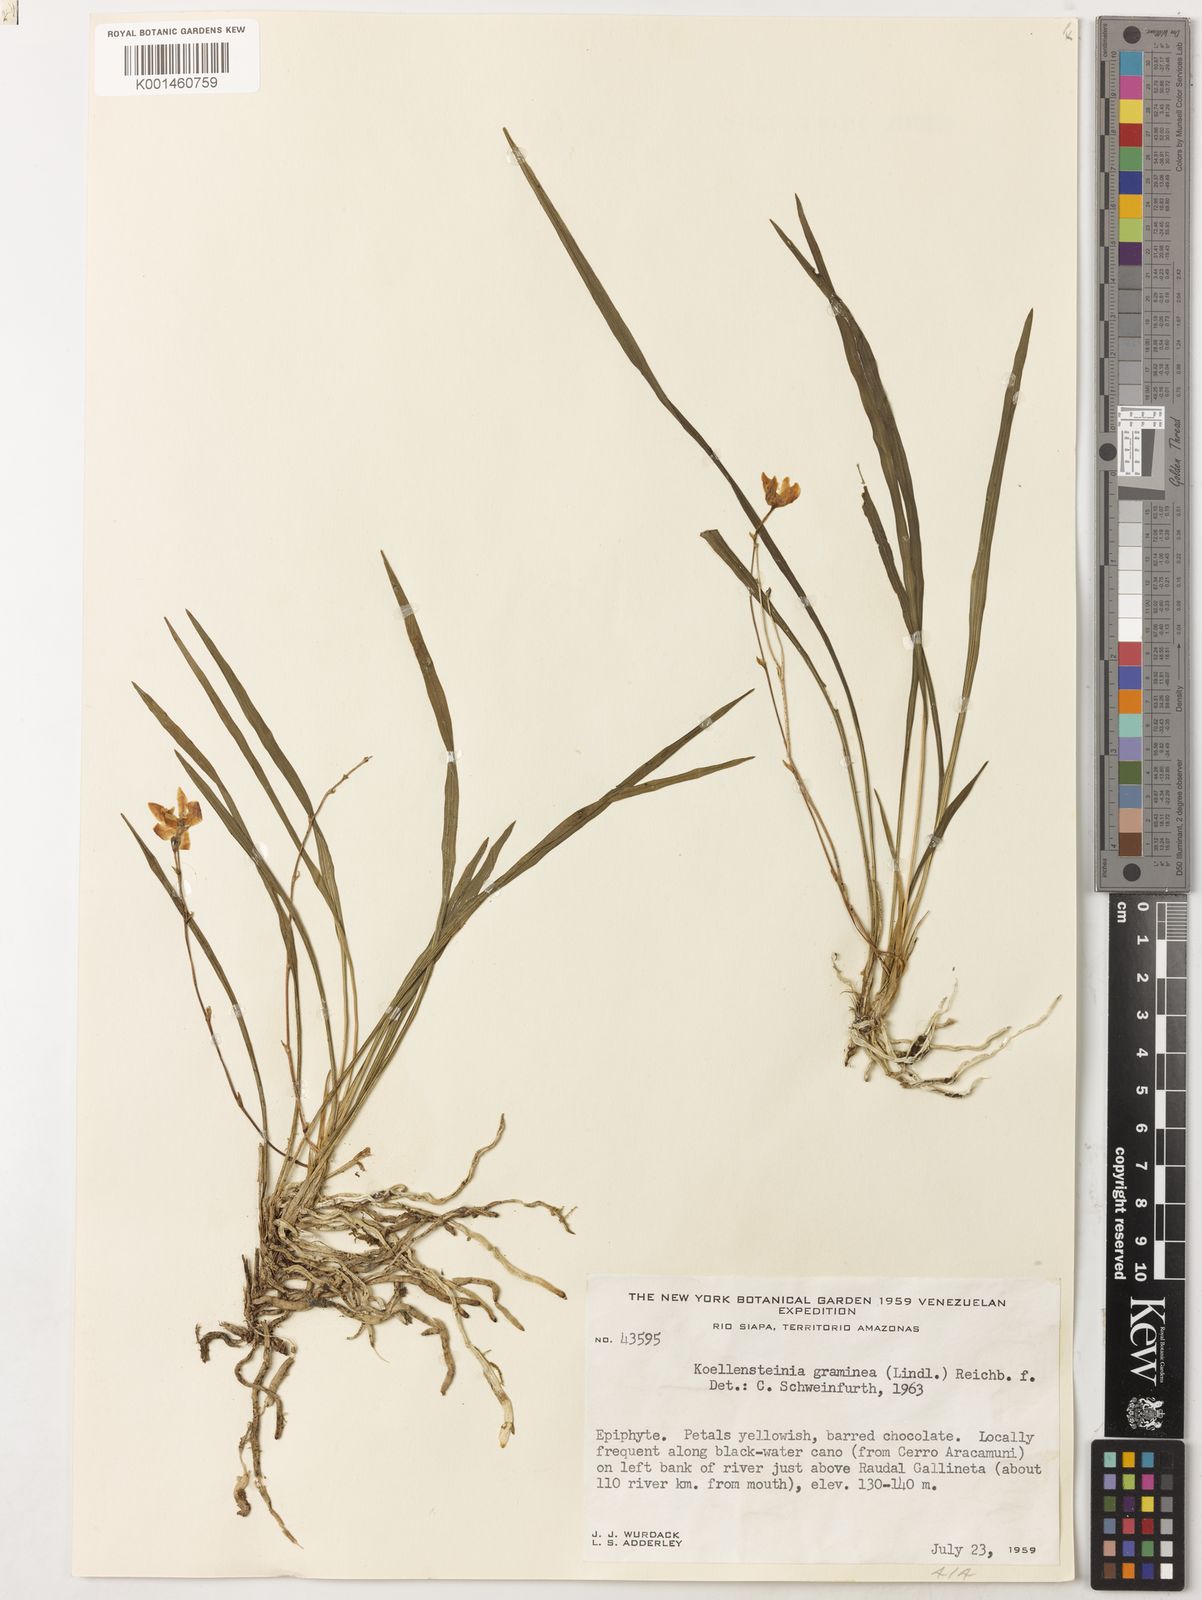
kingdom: Plantae
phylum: Tracheophyta
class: Liliopsida
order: Asparagales
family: Orchidaceae
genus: Koellensteinia
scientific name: Koellensteinia graminea
